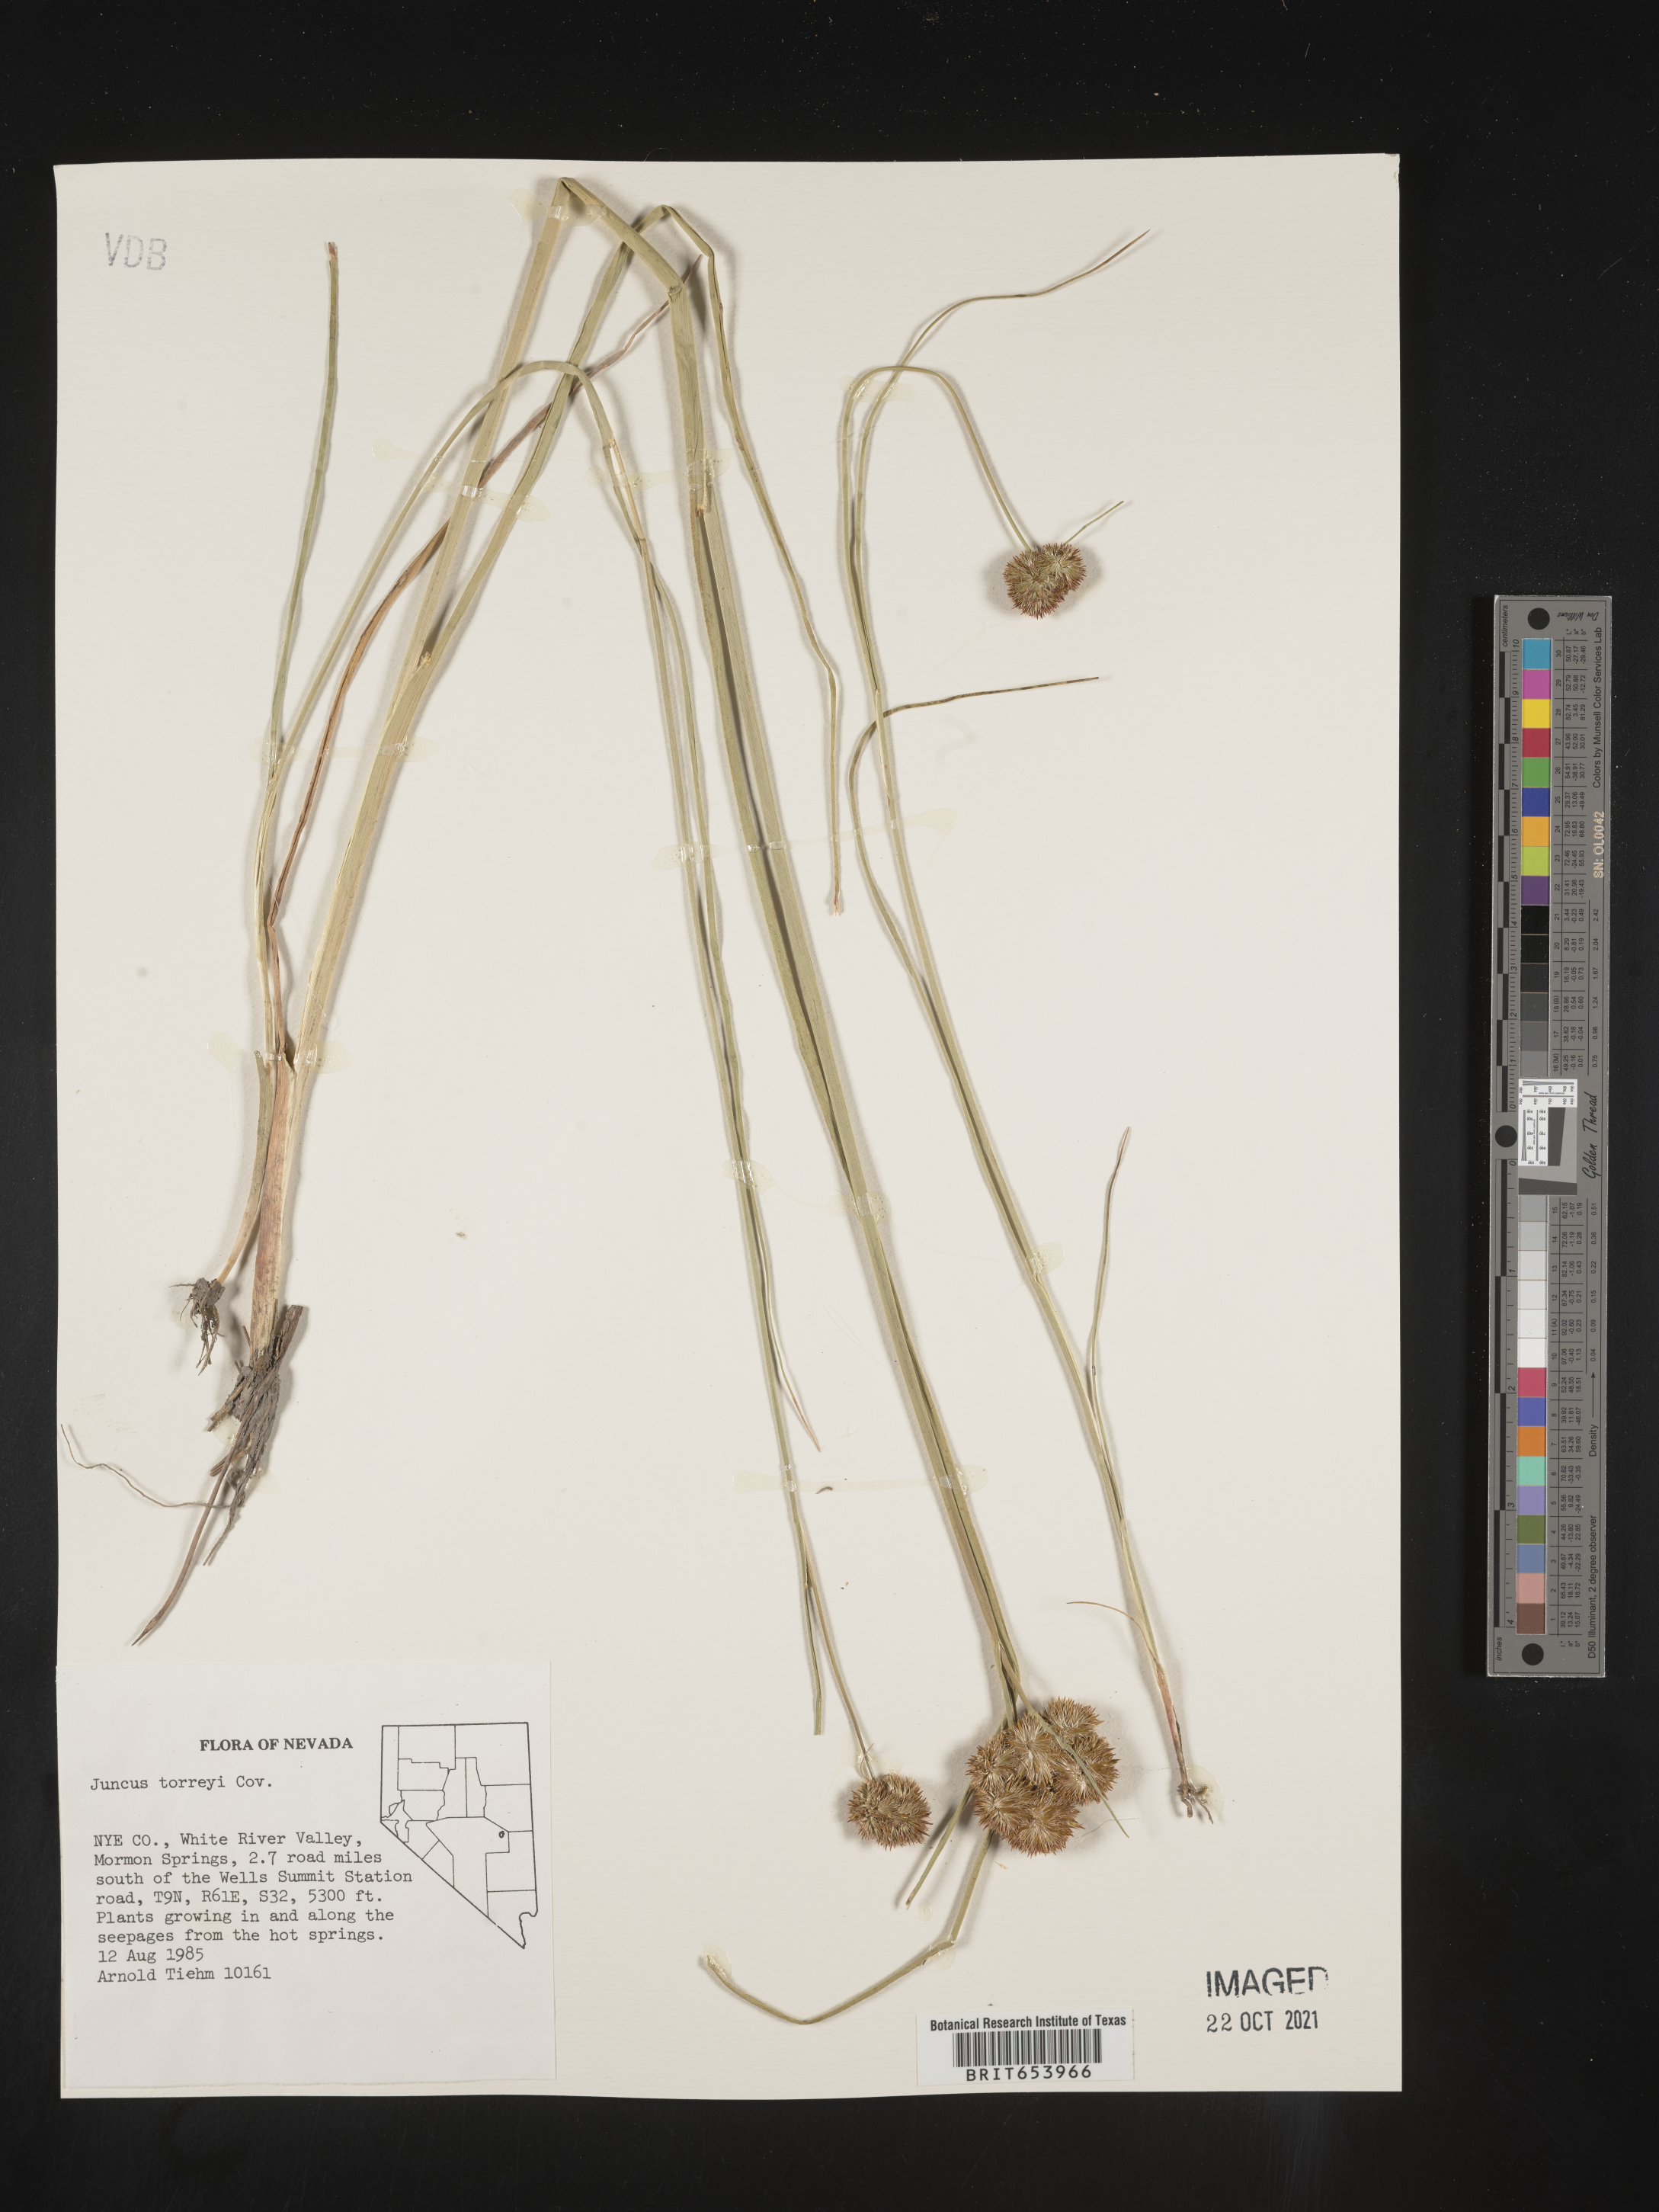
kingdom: Plantae
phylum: Tracheophyta
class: Liliopsida
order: Poales
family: Juncaceae
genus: Juncus
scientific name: Juncus torreyi
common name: Torrey's rush
